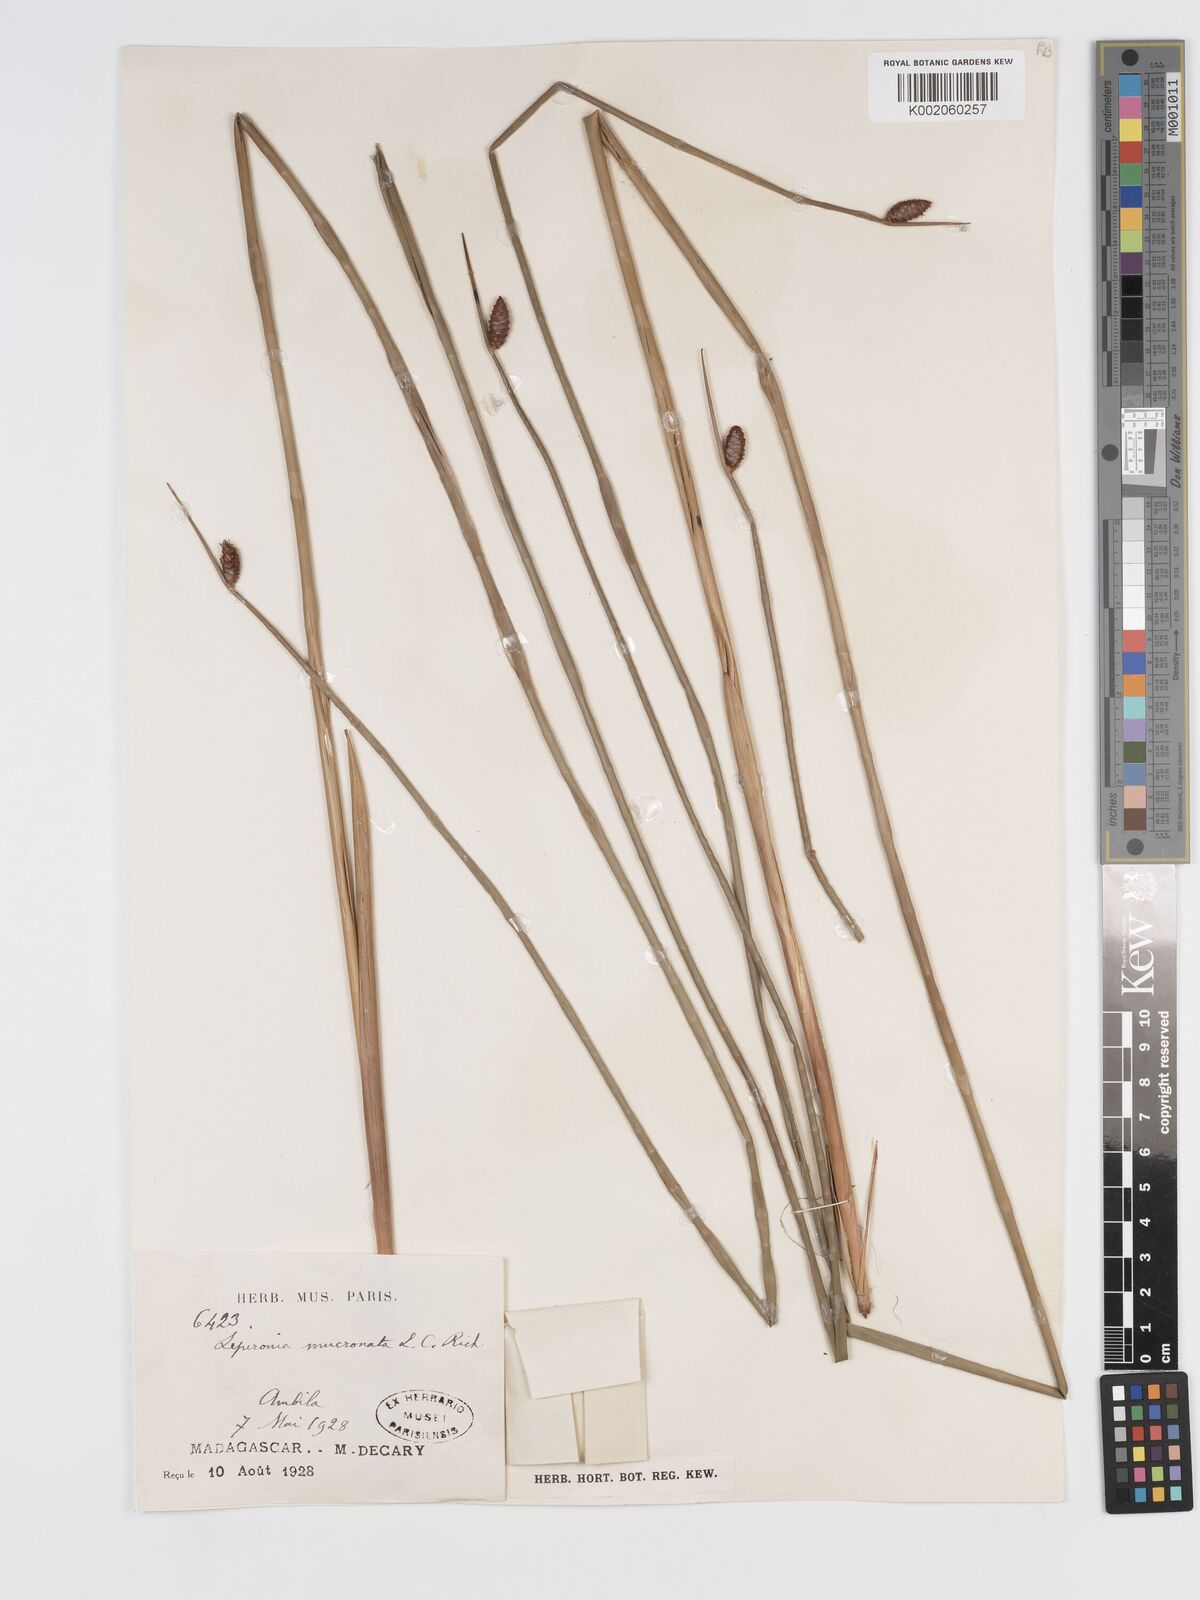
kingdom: Plantae
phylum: Tracheophyta
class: Liliopsida
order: Poales
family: Cyperaceae
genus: Lepironia
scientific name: Lepironia articulata
